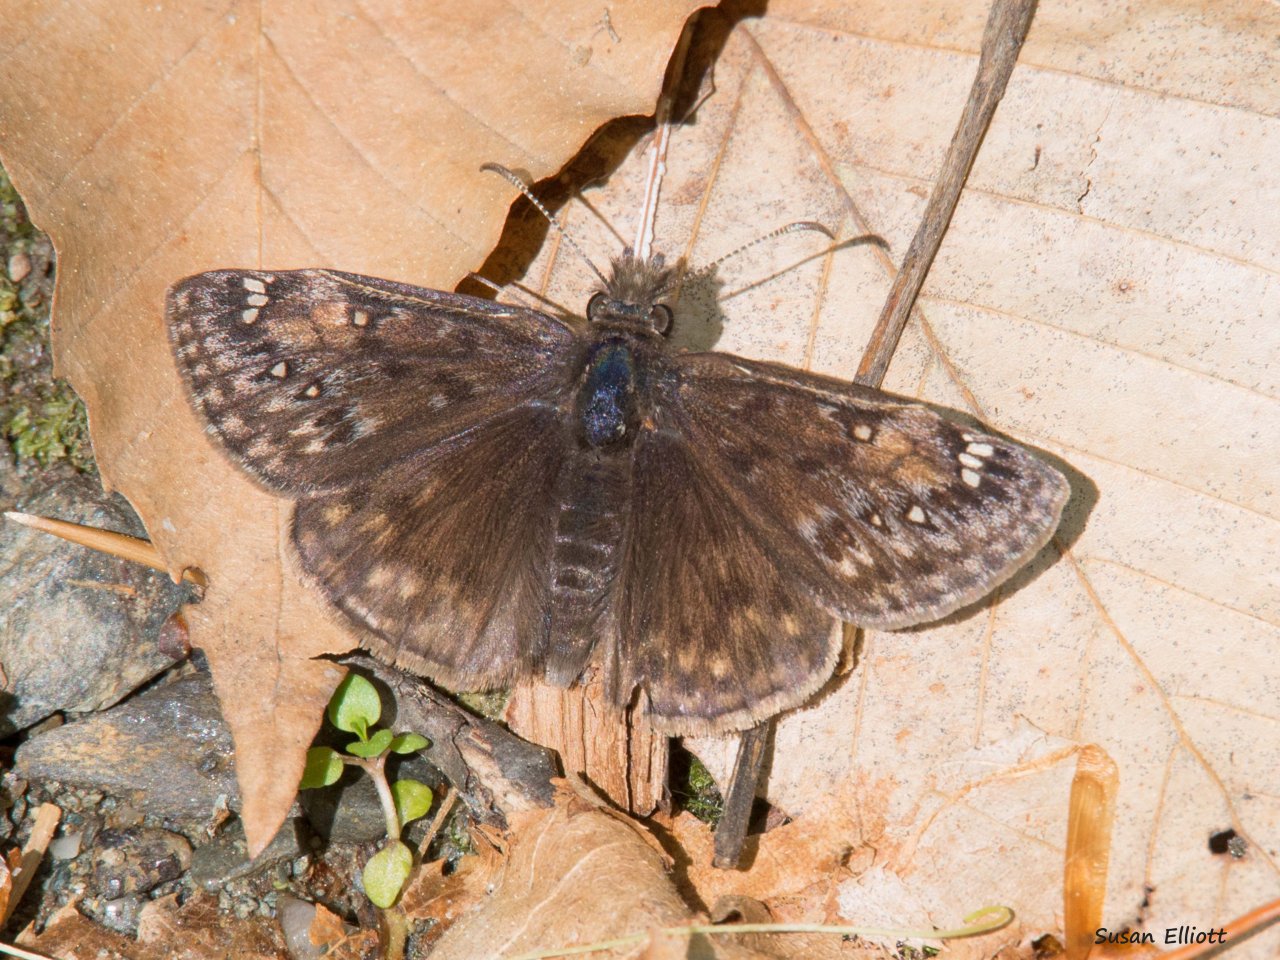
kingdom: Animalia
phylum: Arthropoda
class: Insecta
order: Lepidoptera
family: Hesperiidae
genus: Gesta
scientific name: Gesta
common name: Juvenal's Duskywing
